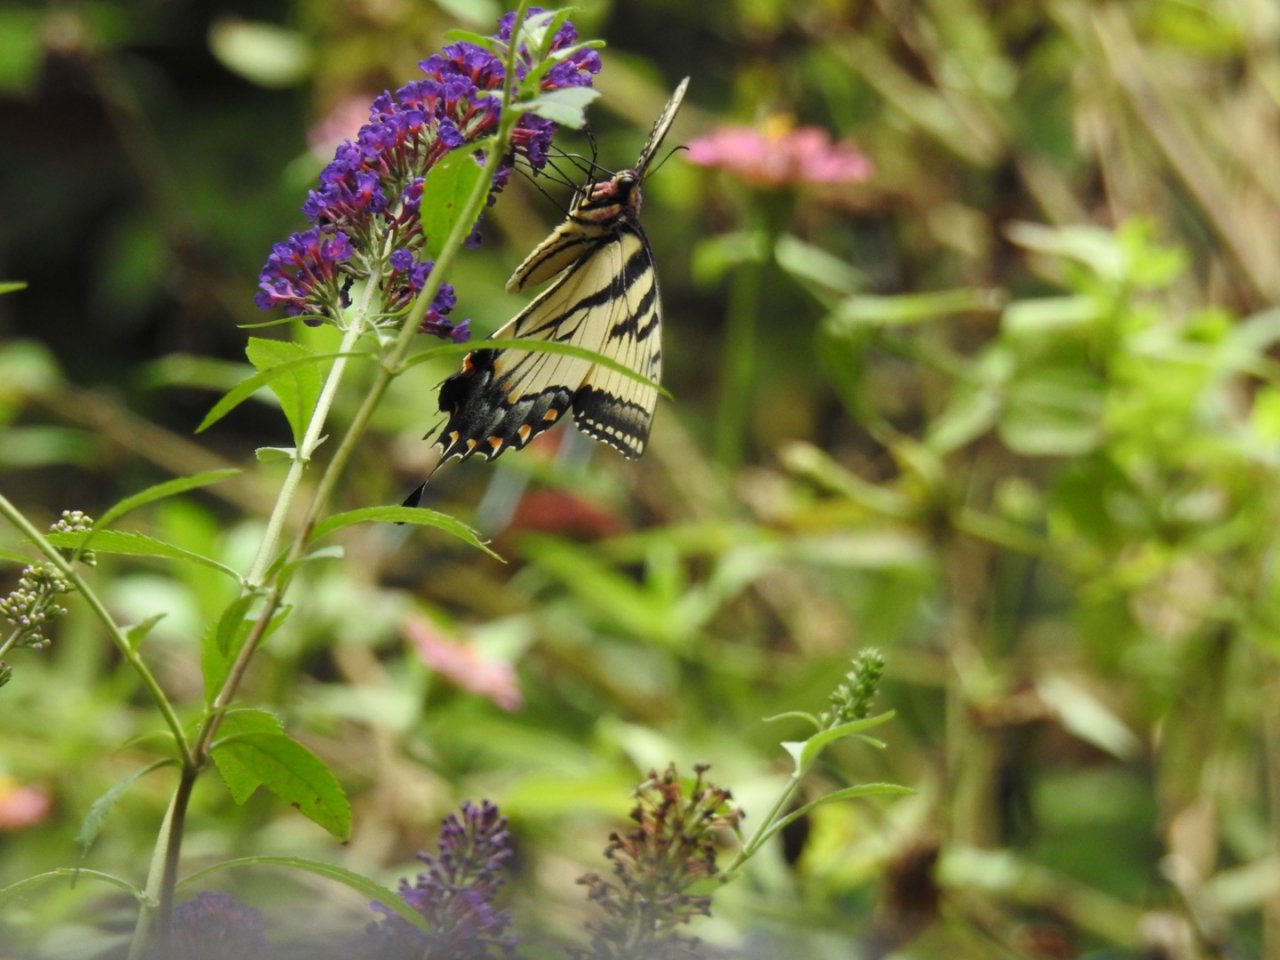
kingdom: Animalia
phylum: Arthropoda
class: Insecta
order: Lepidoptera
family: Papilionidae
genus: Pterourus
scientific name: Pterourus glaucus
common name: Eastern Tiger Swallowtail
